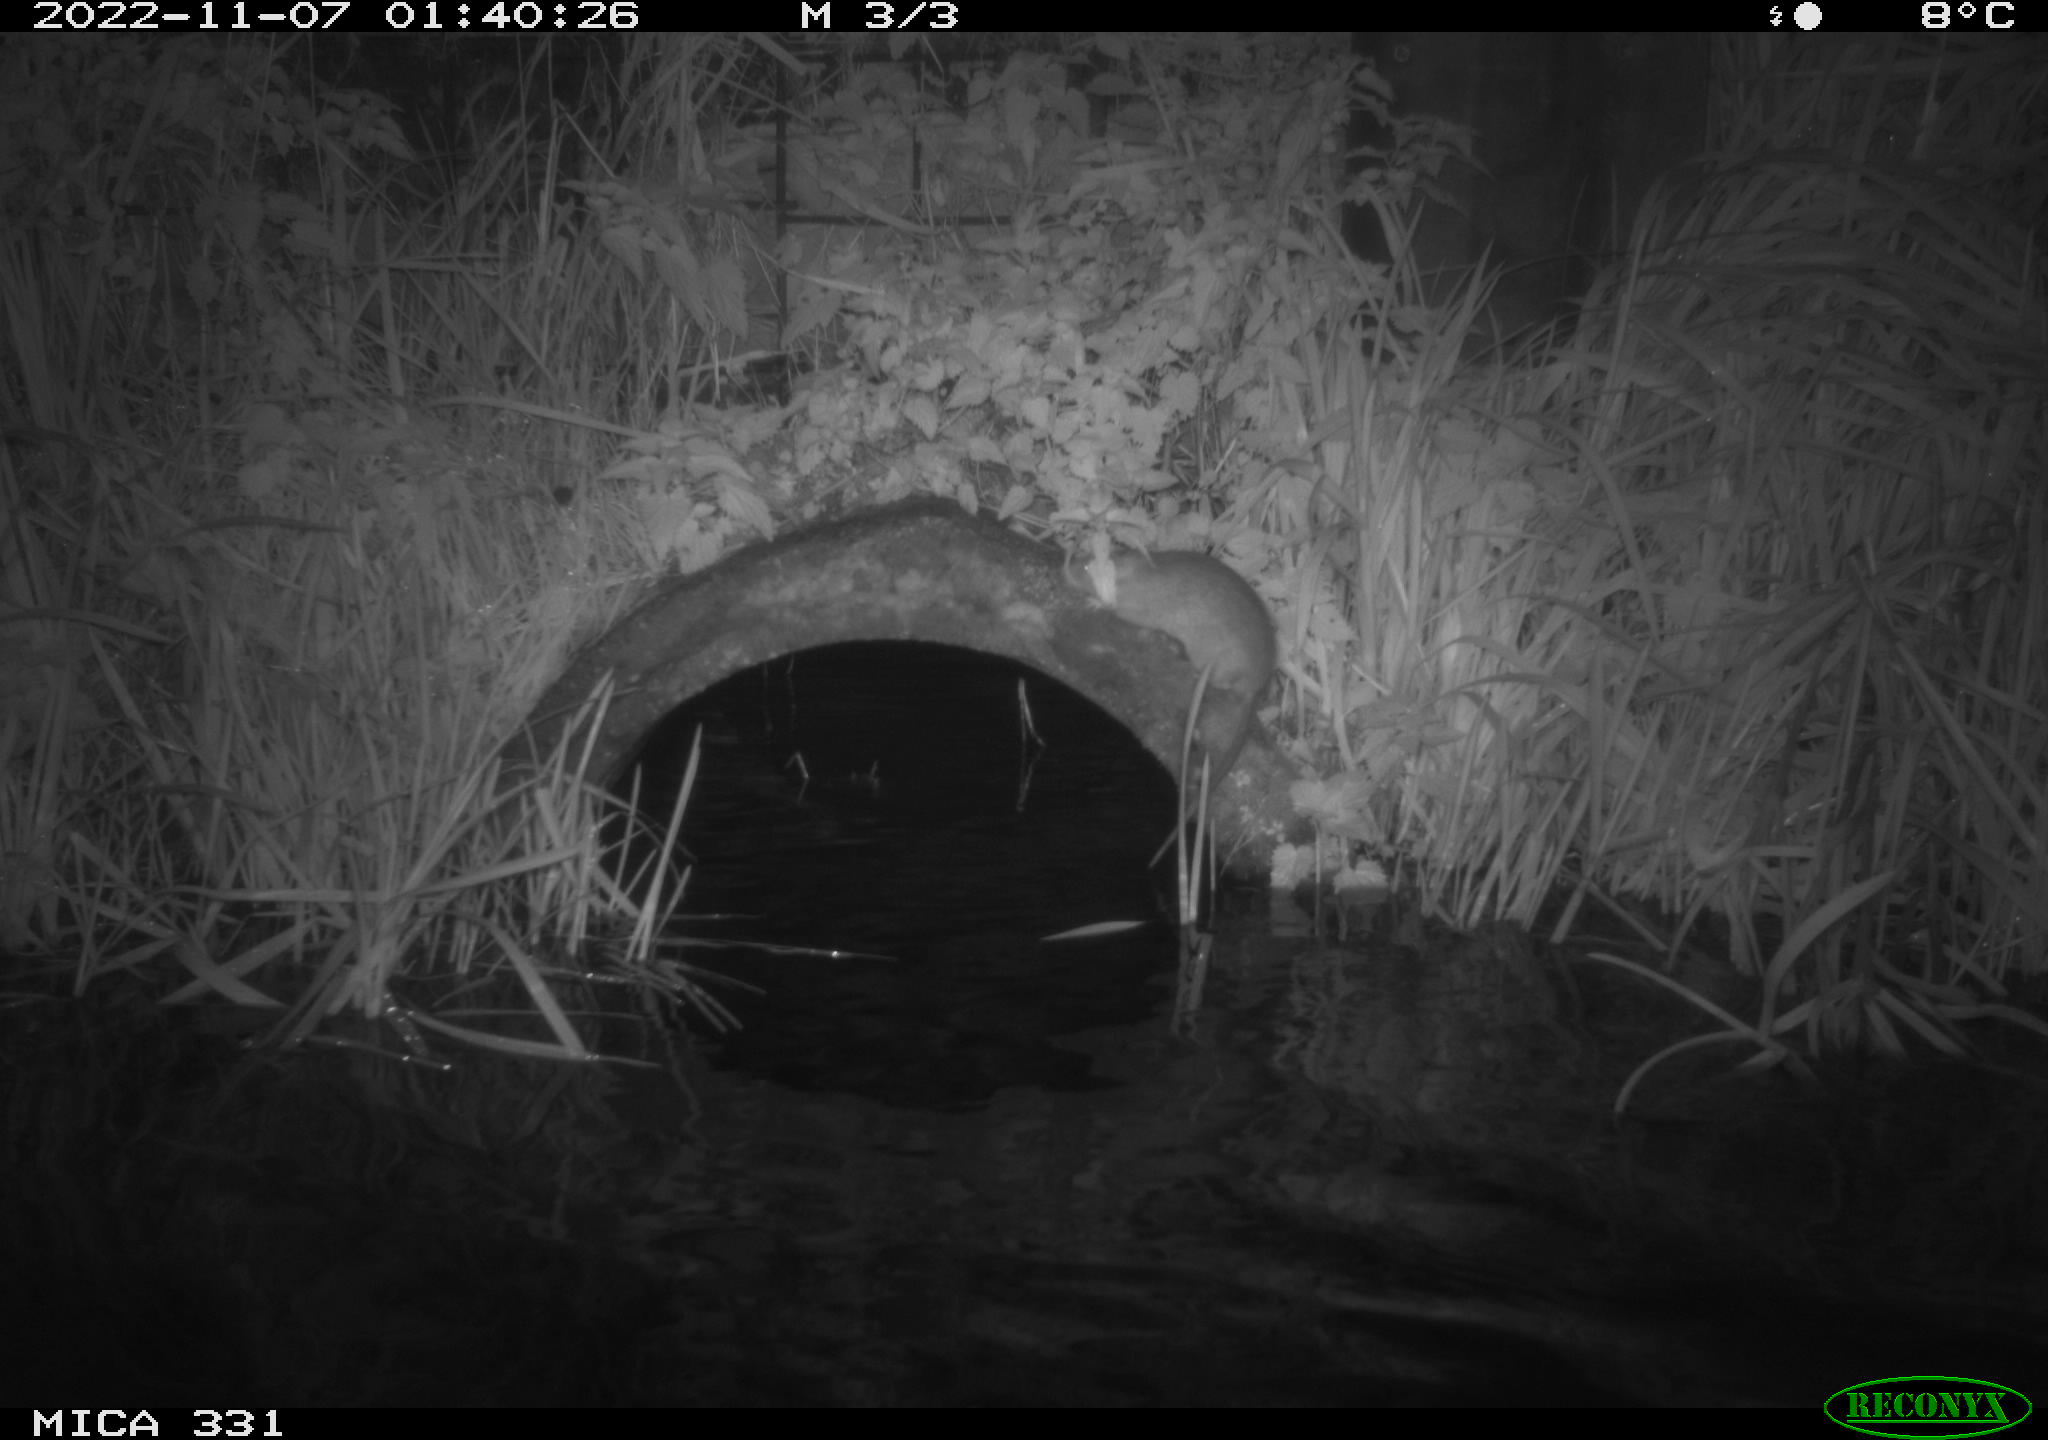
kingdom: Animalia
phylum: Chordata
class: Mammalia
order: Rodentia
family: Muridae
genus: Rattus
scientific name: Rattus norvegicus
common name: Brown rat
